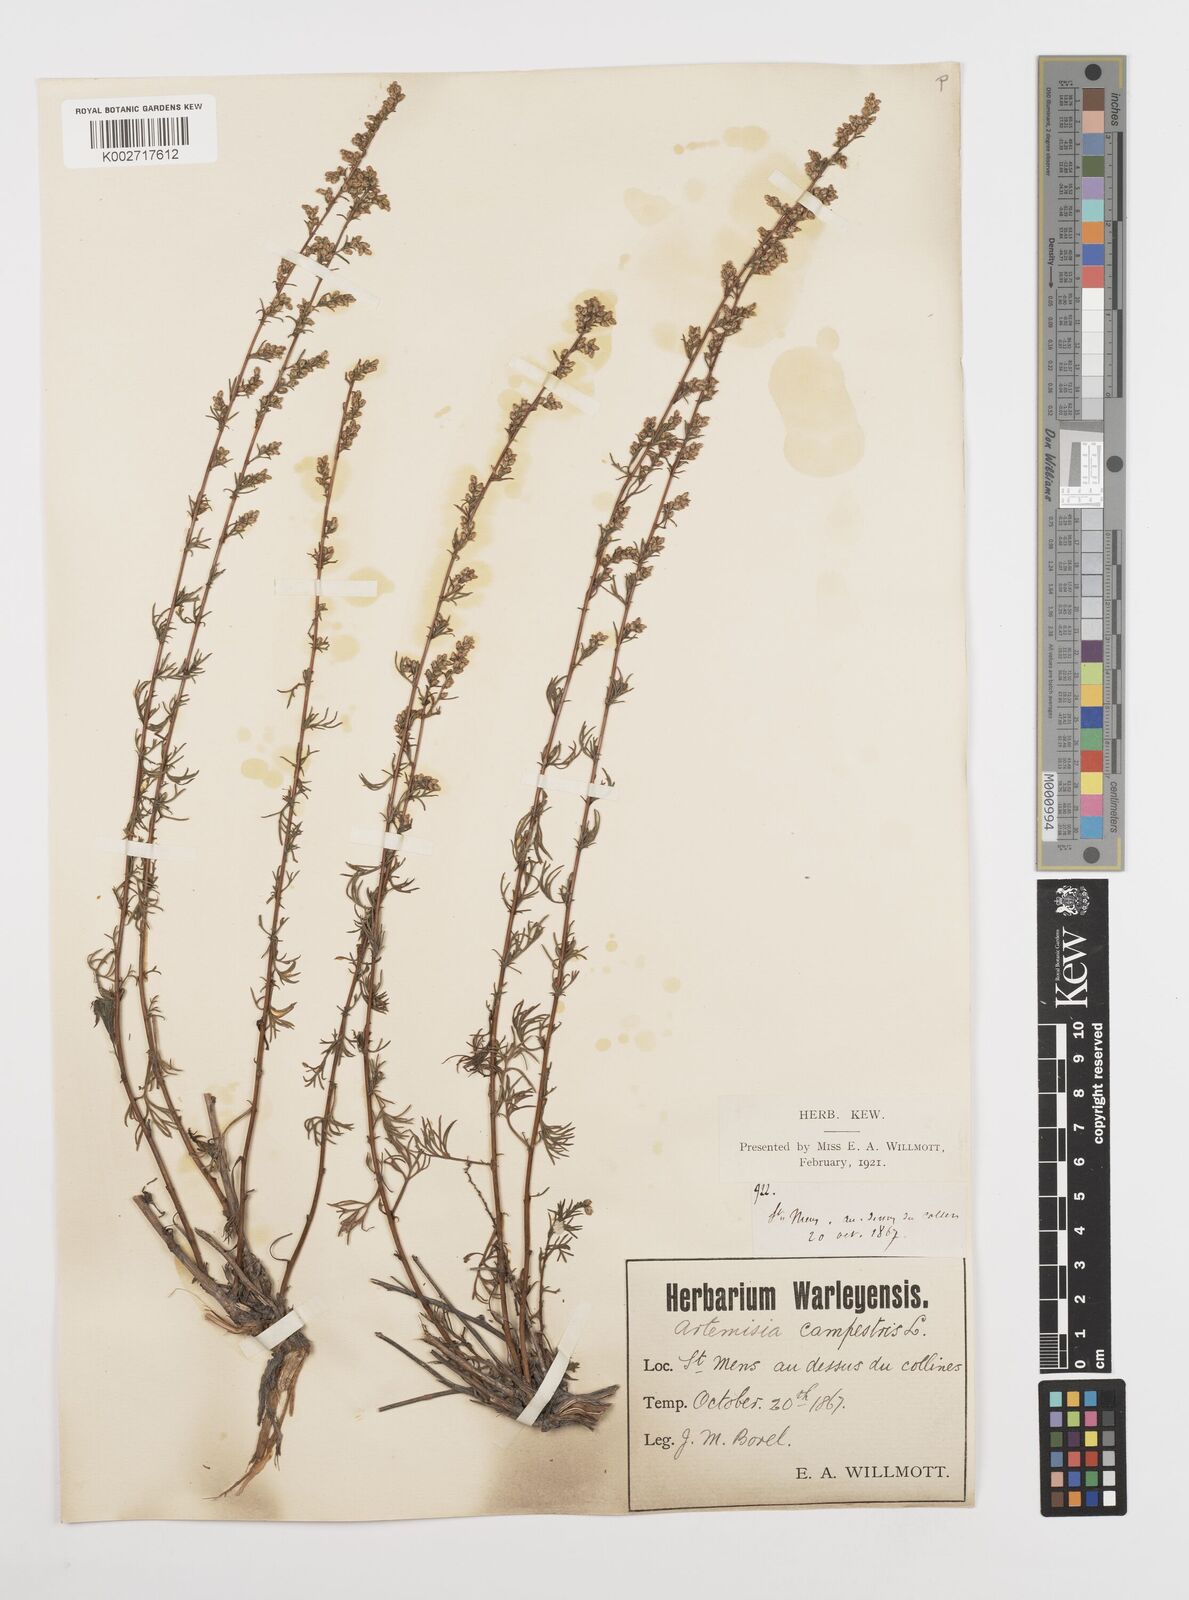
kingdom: Plantae
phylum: Tracheophyta
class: Magnoliopsida
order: Asterales
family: Asteraceae
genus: Artemisia
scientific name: Artemisia campestris
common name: Field wormwood
